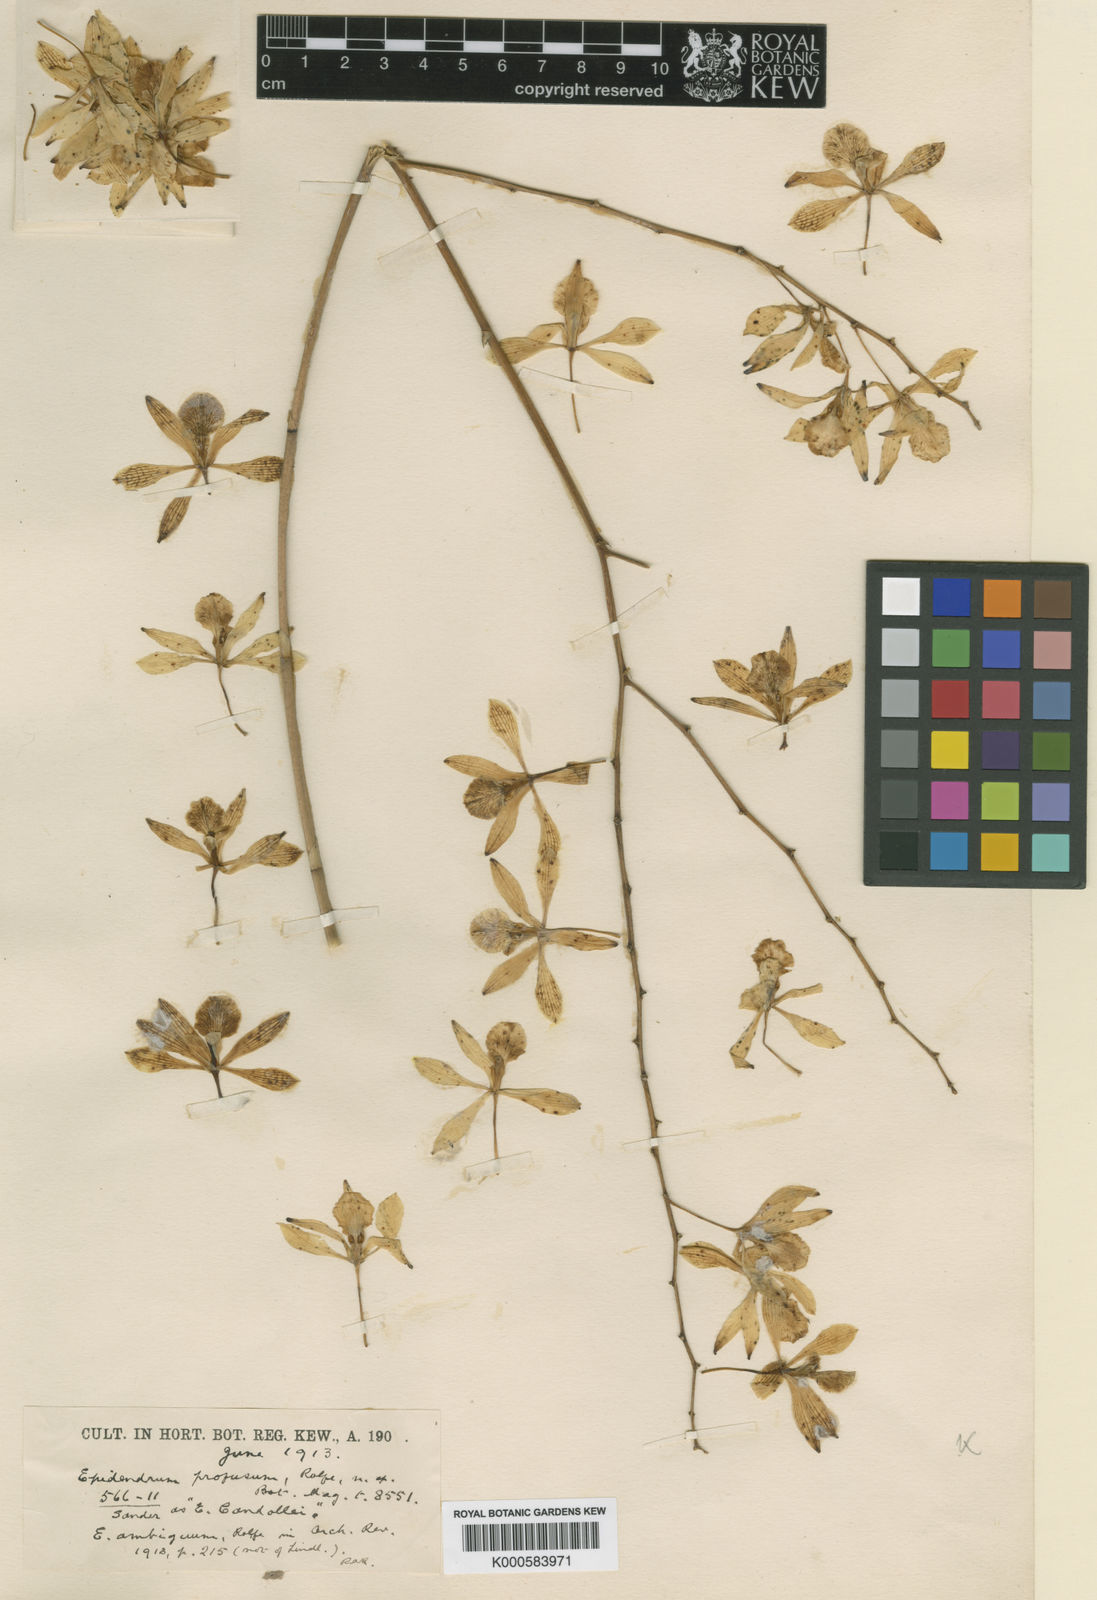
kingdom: Plantae
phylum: Tracheophyta
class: Liliopsida
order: Asparagales
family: Orchidaceae
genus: Encyclia
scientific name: Encyclia profusa
